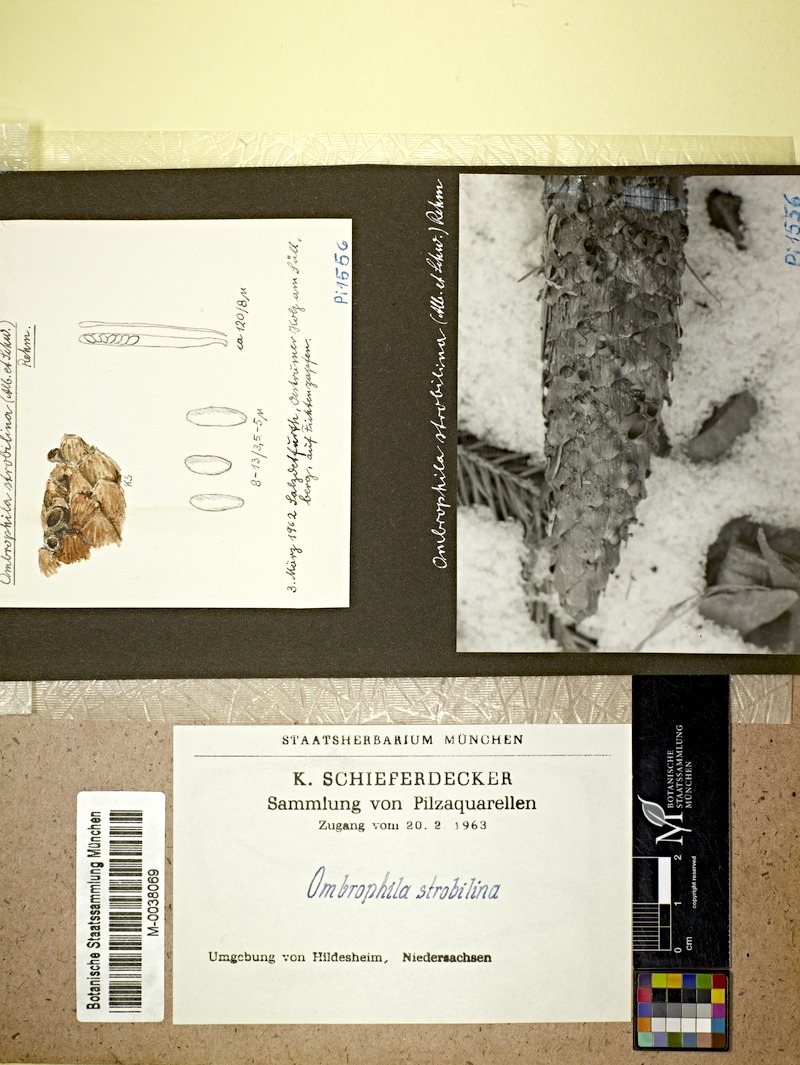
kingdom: Fungi
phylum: Ascomycota
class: Leotiomycetes
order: Helotiales
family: Rutstroemiaceae
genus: Rutstroemia
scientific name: Rutstroemia bulgarioides
